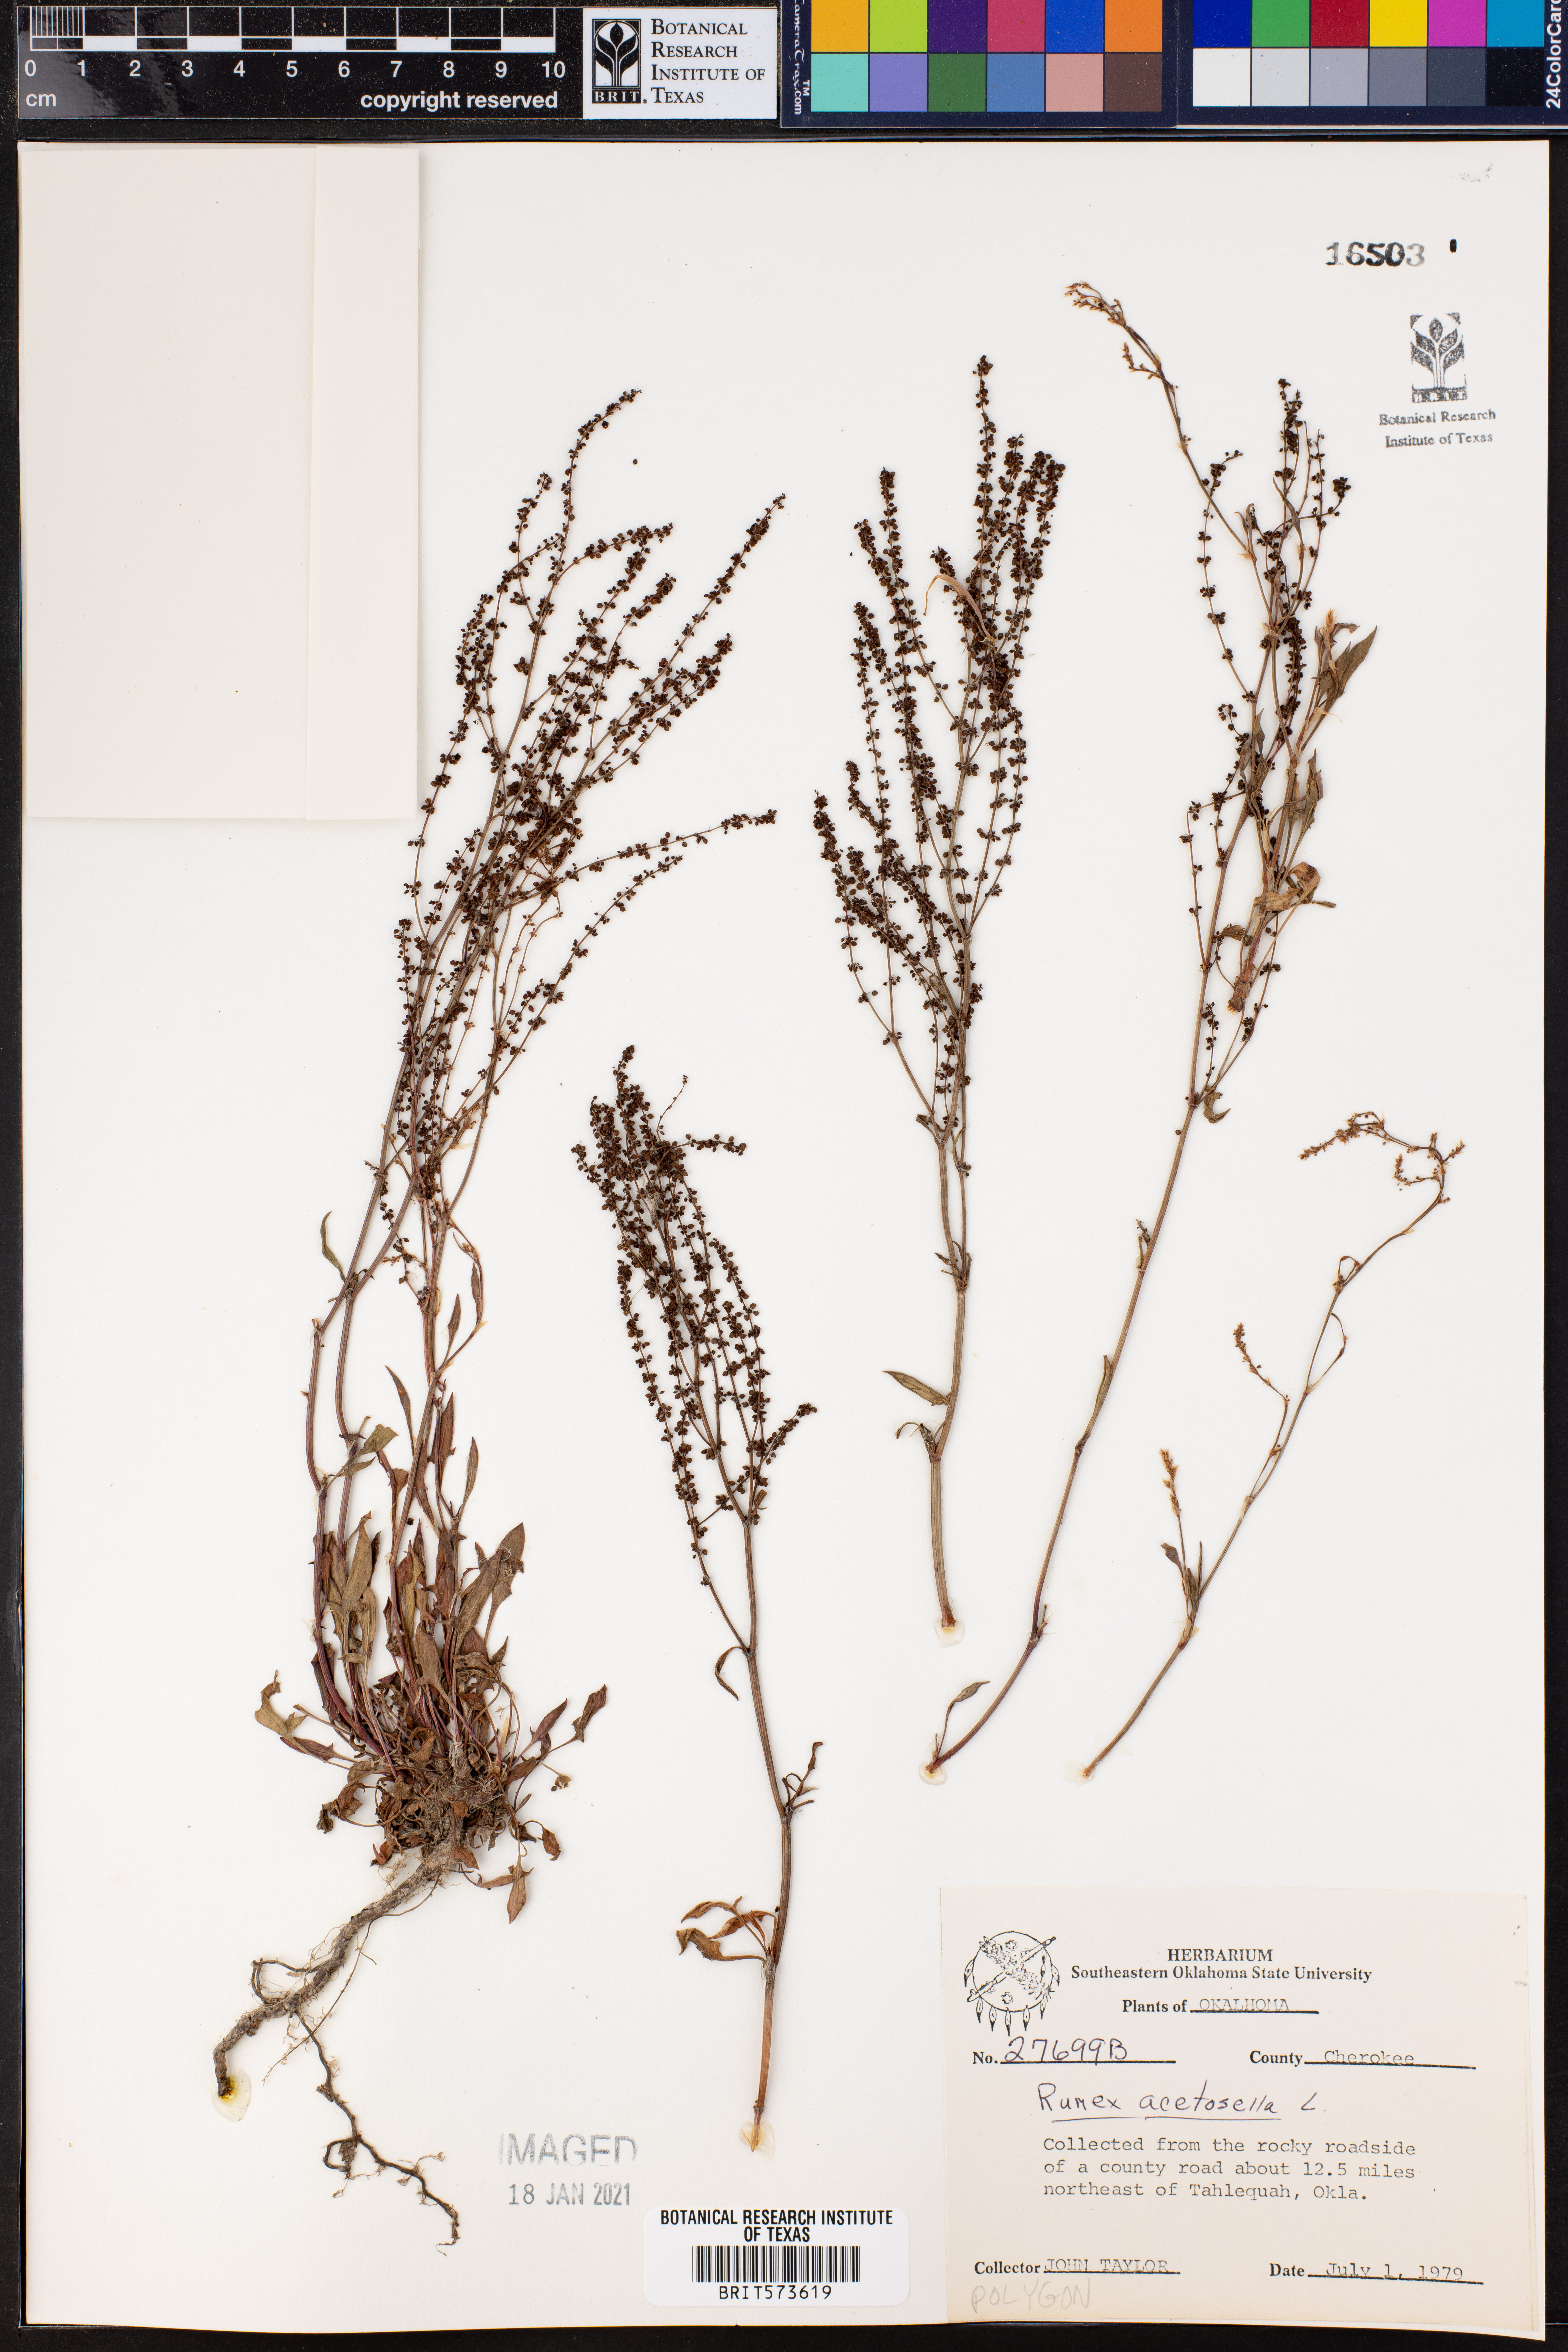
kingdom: Plantae
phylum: Tracheophyta
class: Magnoliopsida
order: Caryophyllales
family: Polygonaceae
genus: Rumex
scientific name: Rumex acetosella
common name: Common sheep sorrel
